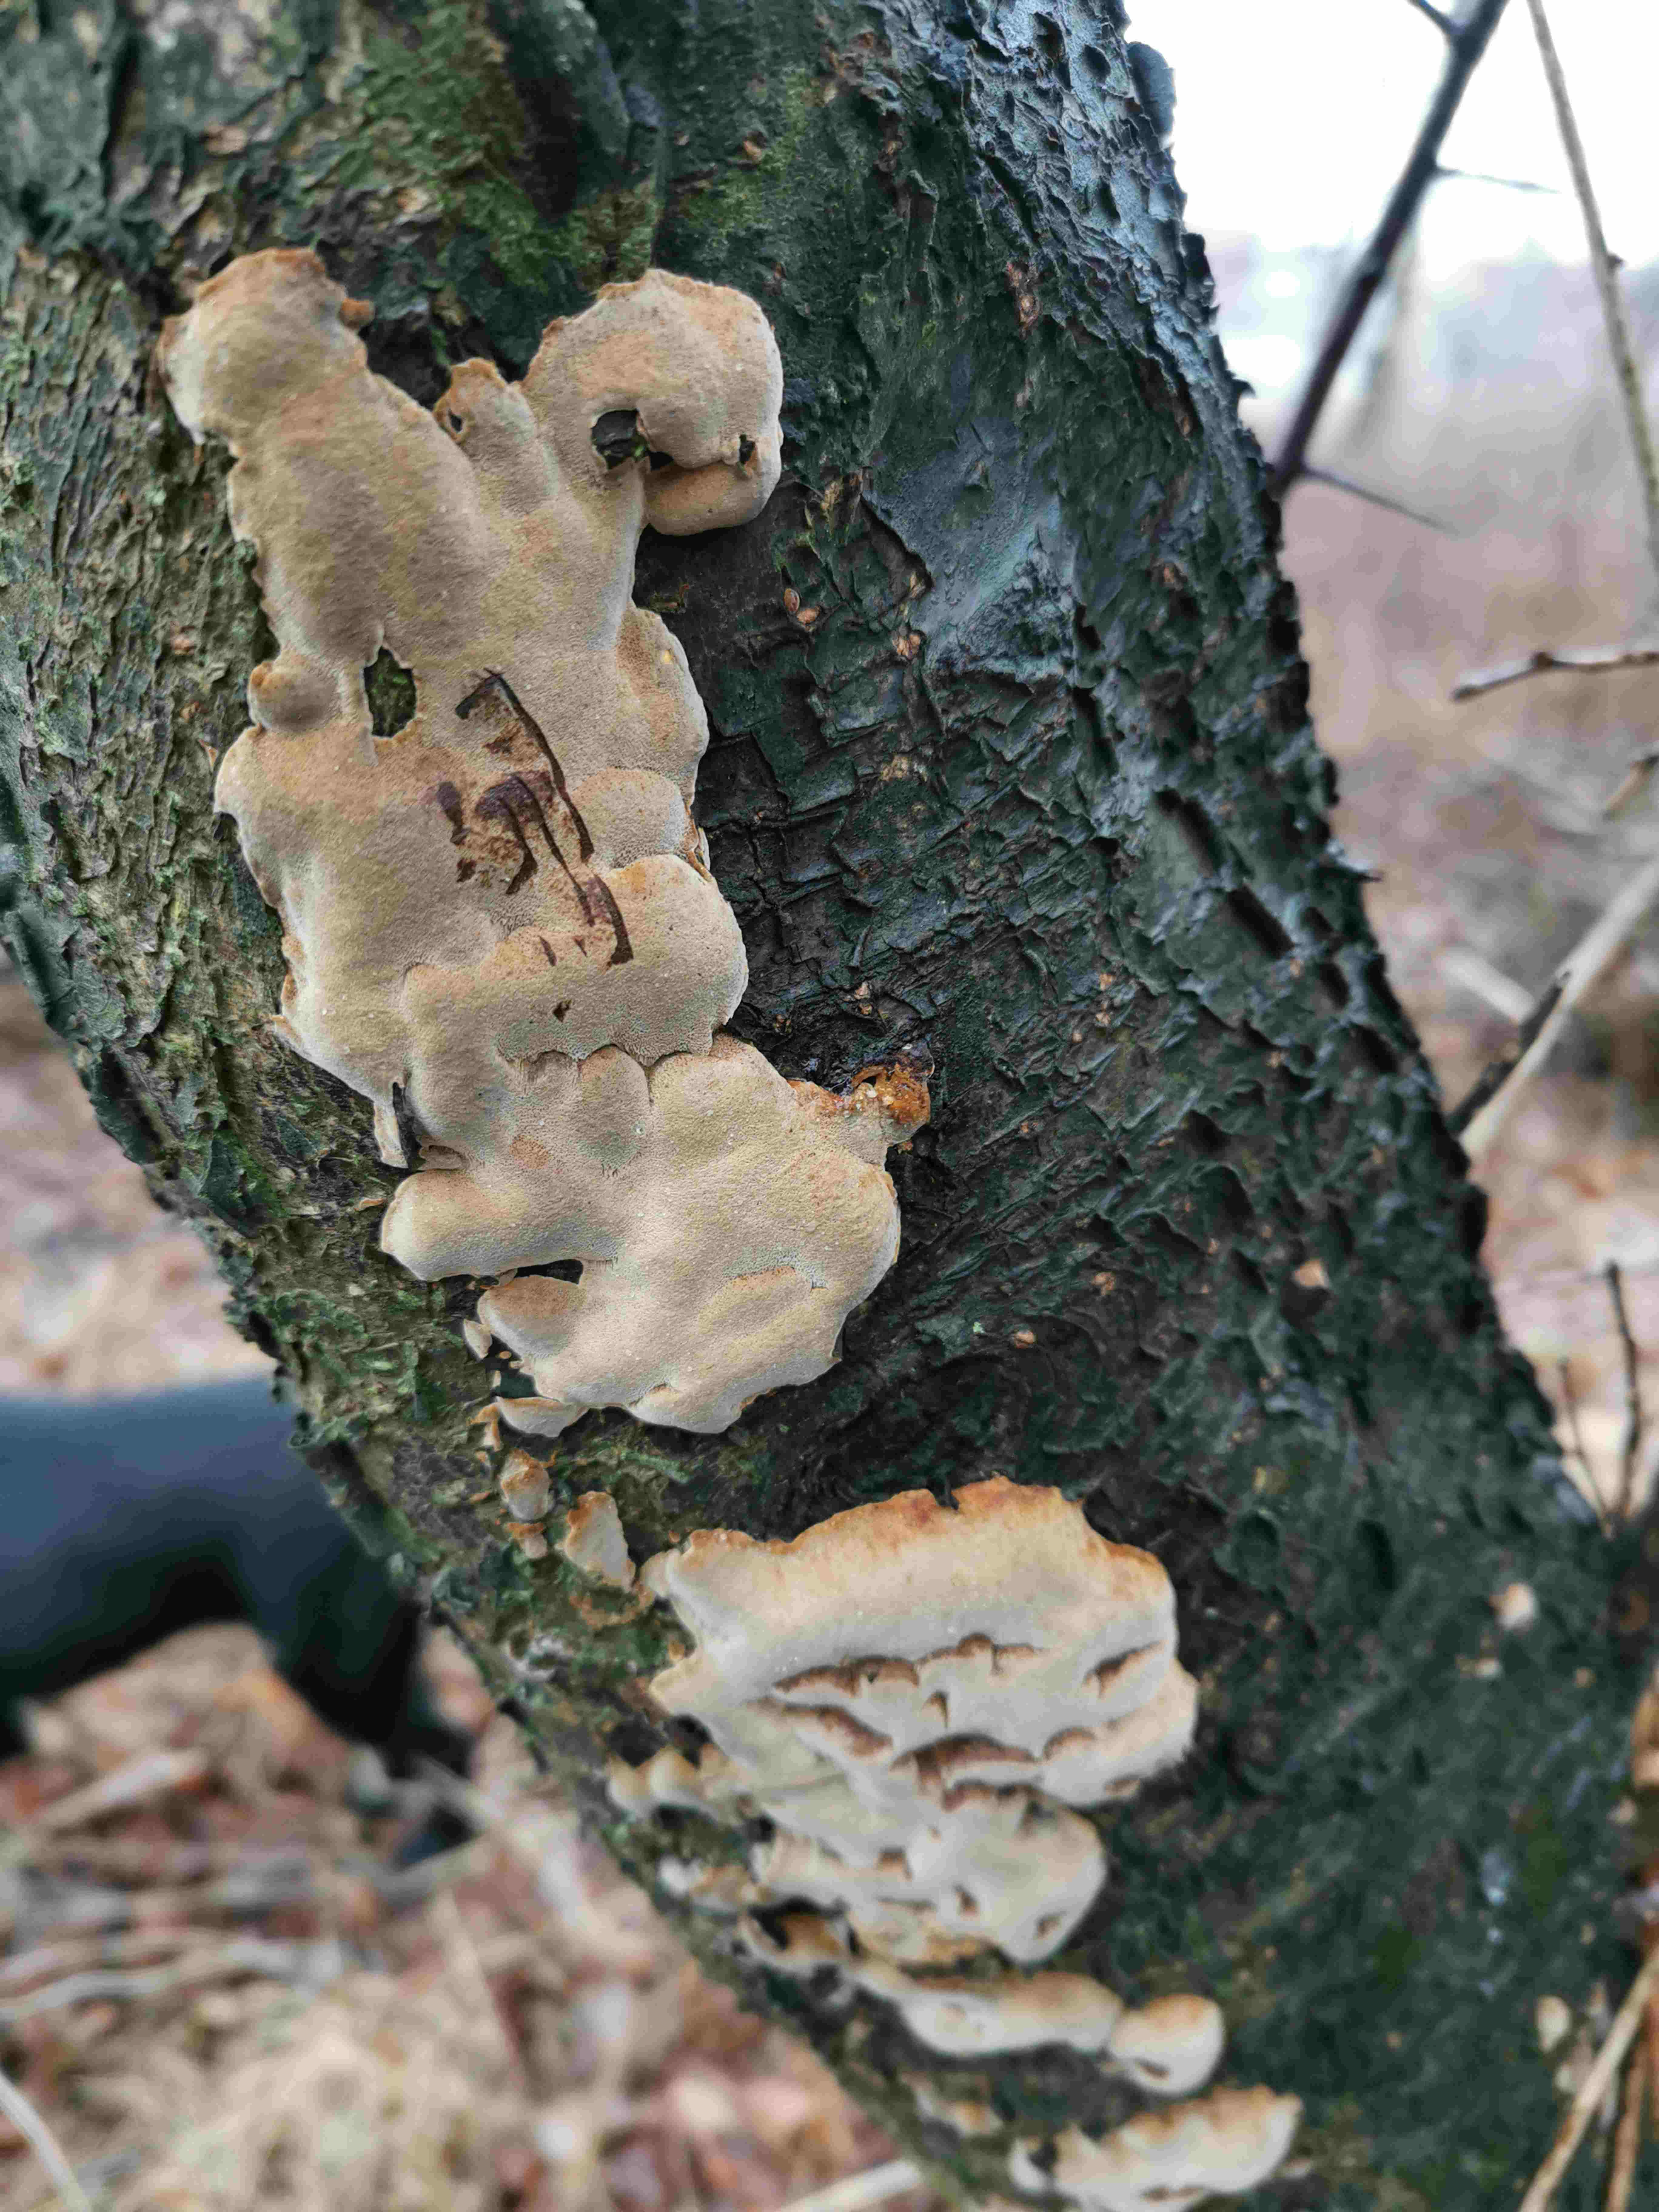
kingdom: Fungi
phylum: Basidiomycota
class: Agaricomycetes
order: Hymenochaetales
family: Hymenochaetaceae
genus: Phellinus
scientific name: Phellinus pomaceus
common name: blomme-ildporesvamp
